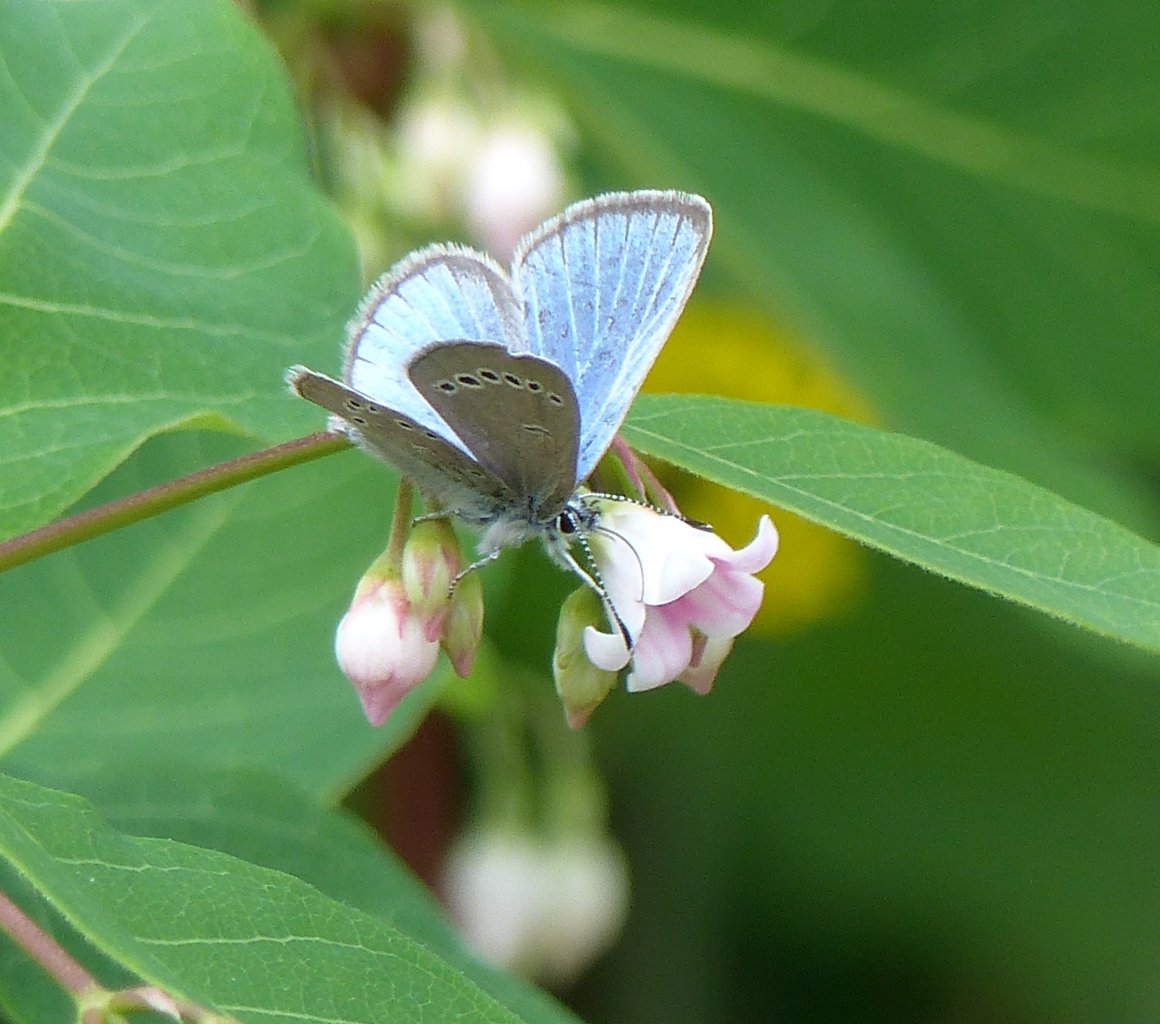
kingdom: Animalia
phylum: Arthropoda
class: Insecta
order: Lepidoptera
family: Lycaenidae
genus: Glaucopsyche
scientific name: Glaucopsyche lygdamus
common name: Silvery Blue
